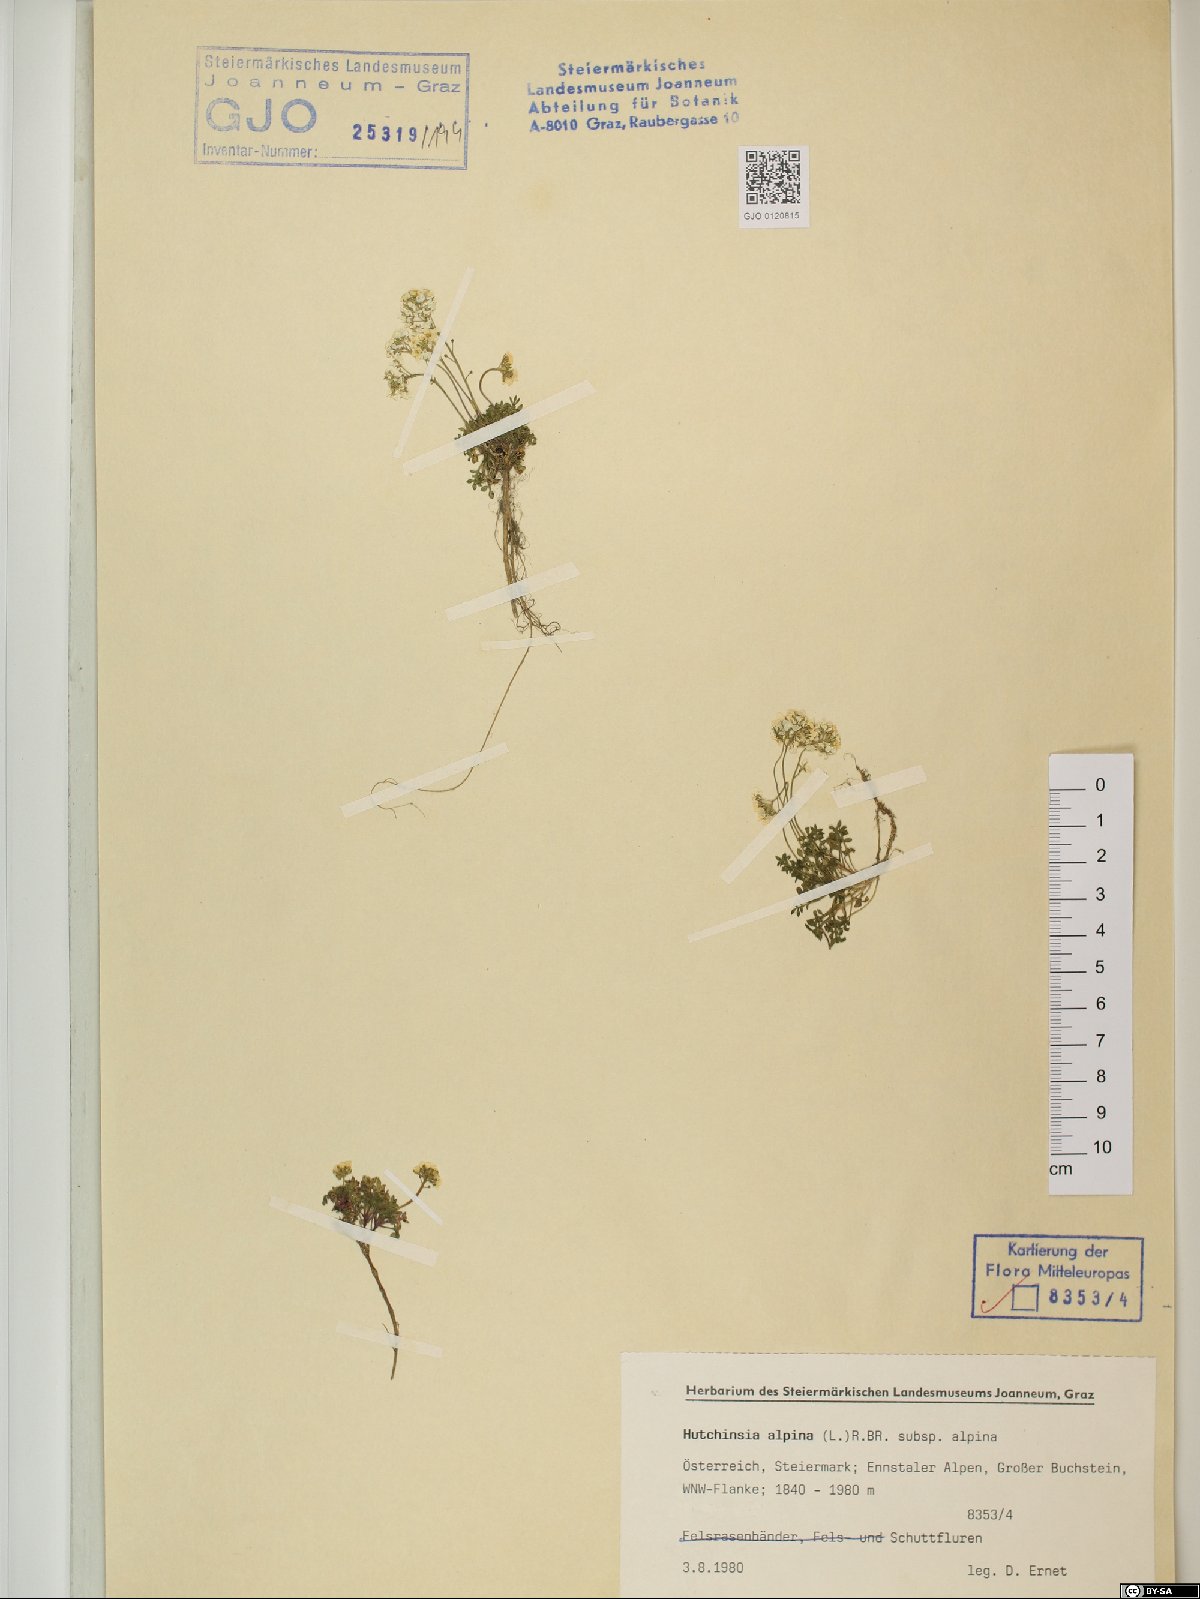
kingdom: Plantae
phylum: Tracheophyta
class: Magnoliopsida
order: Brassicales
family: Brassicaceae
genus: Hornungia
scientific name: Hornungia alpina
